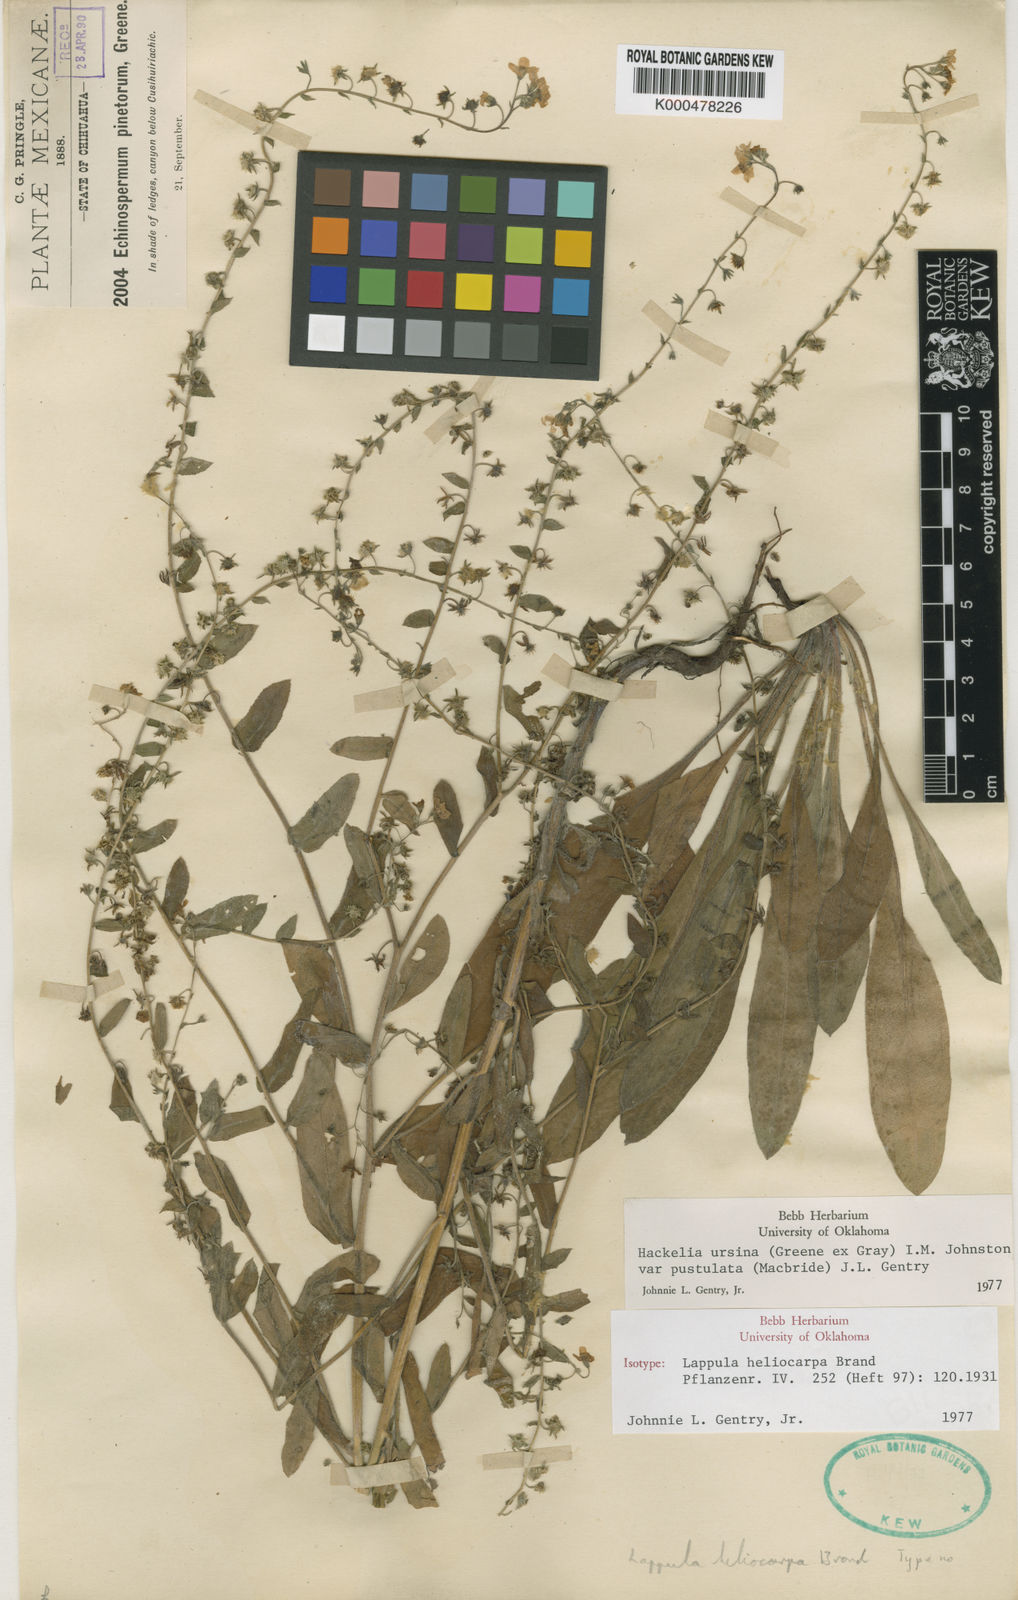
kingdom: Plantae
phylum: Tracheophyta
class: Magnoliopsida
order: Boraginales
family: Boraginaceae
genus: Hackelia
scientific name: Hackelia ursina
